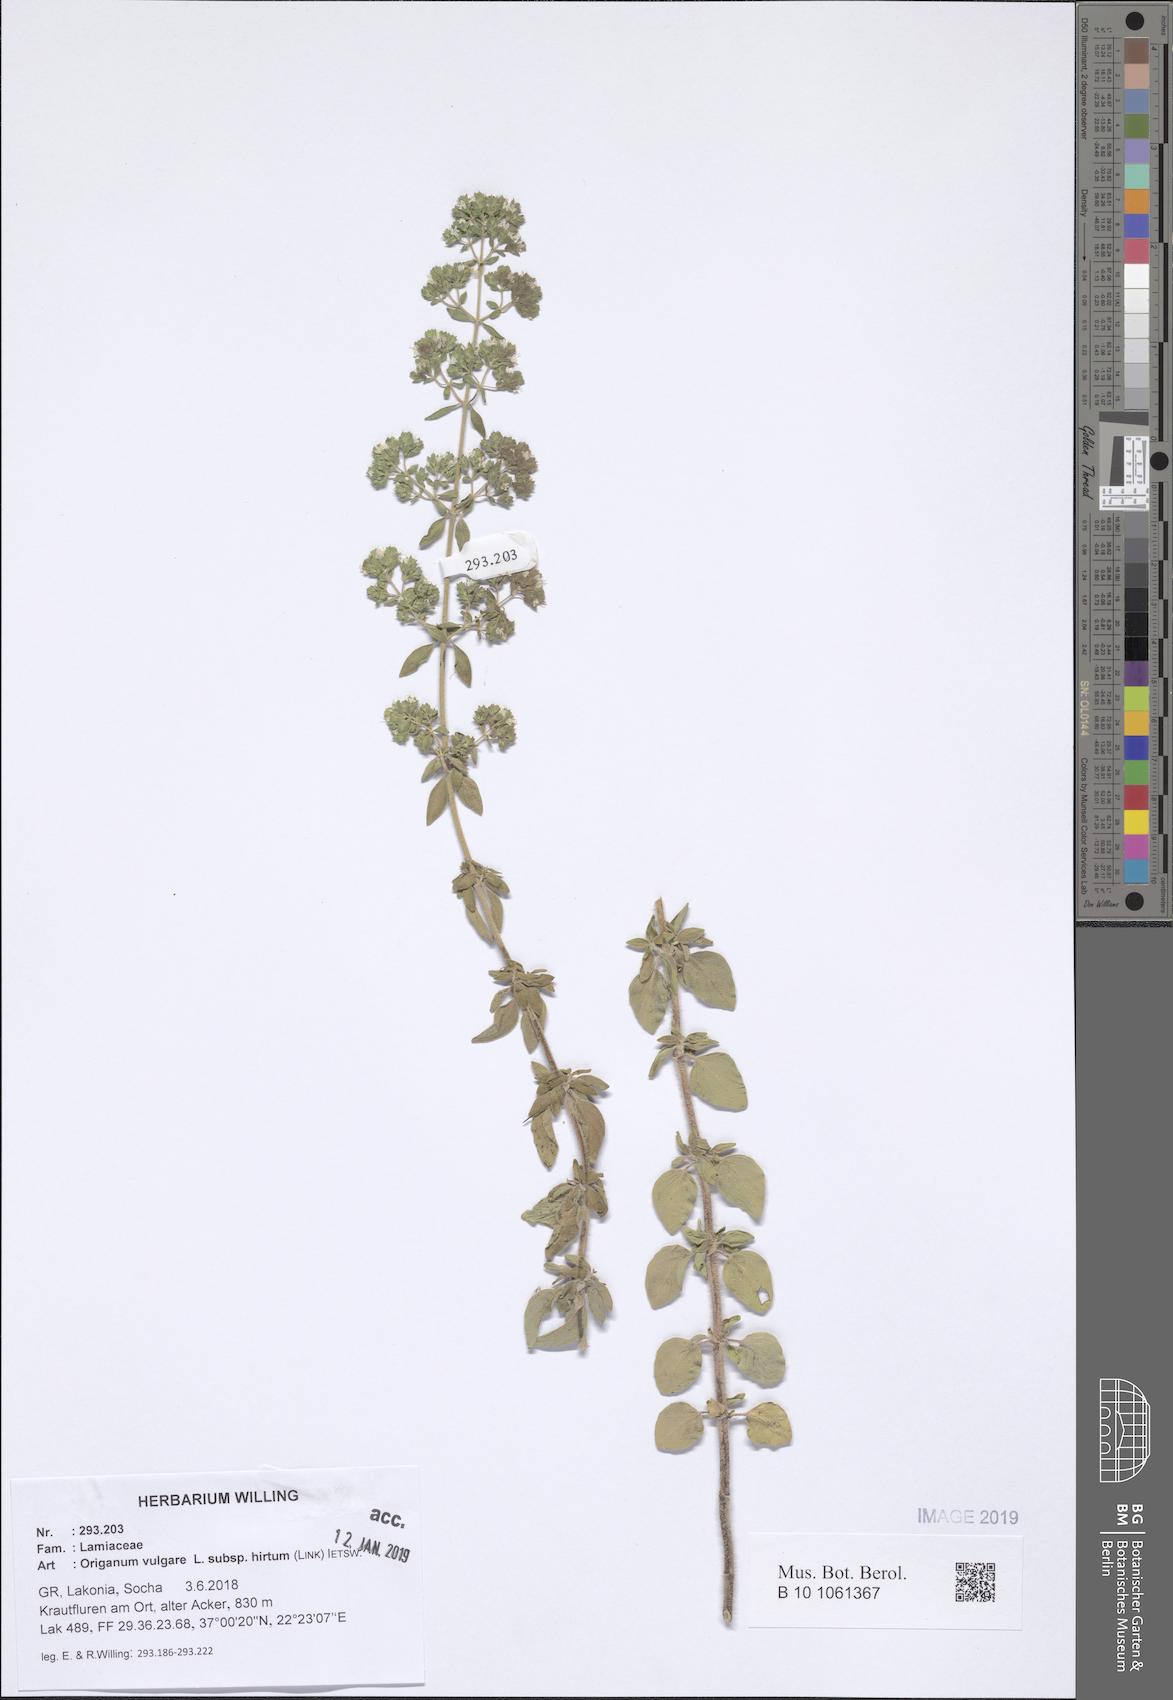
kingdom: Plantae
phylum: Tracheophyta
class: Magnoliopsida
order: Lamiales
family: Lamiaceae
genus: Origanum
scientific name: Origanum vulgare
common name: Wild marjoram
